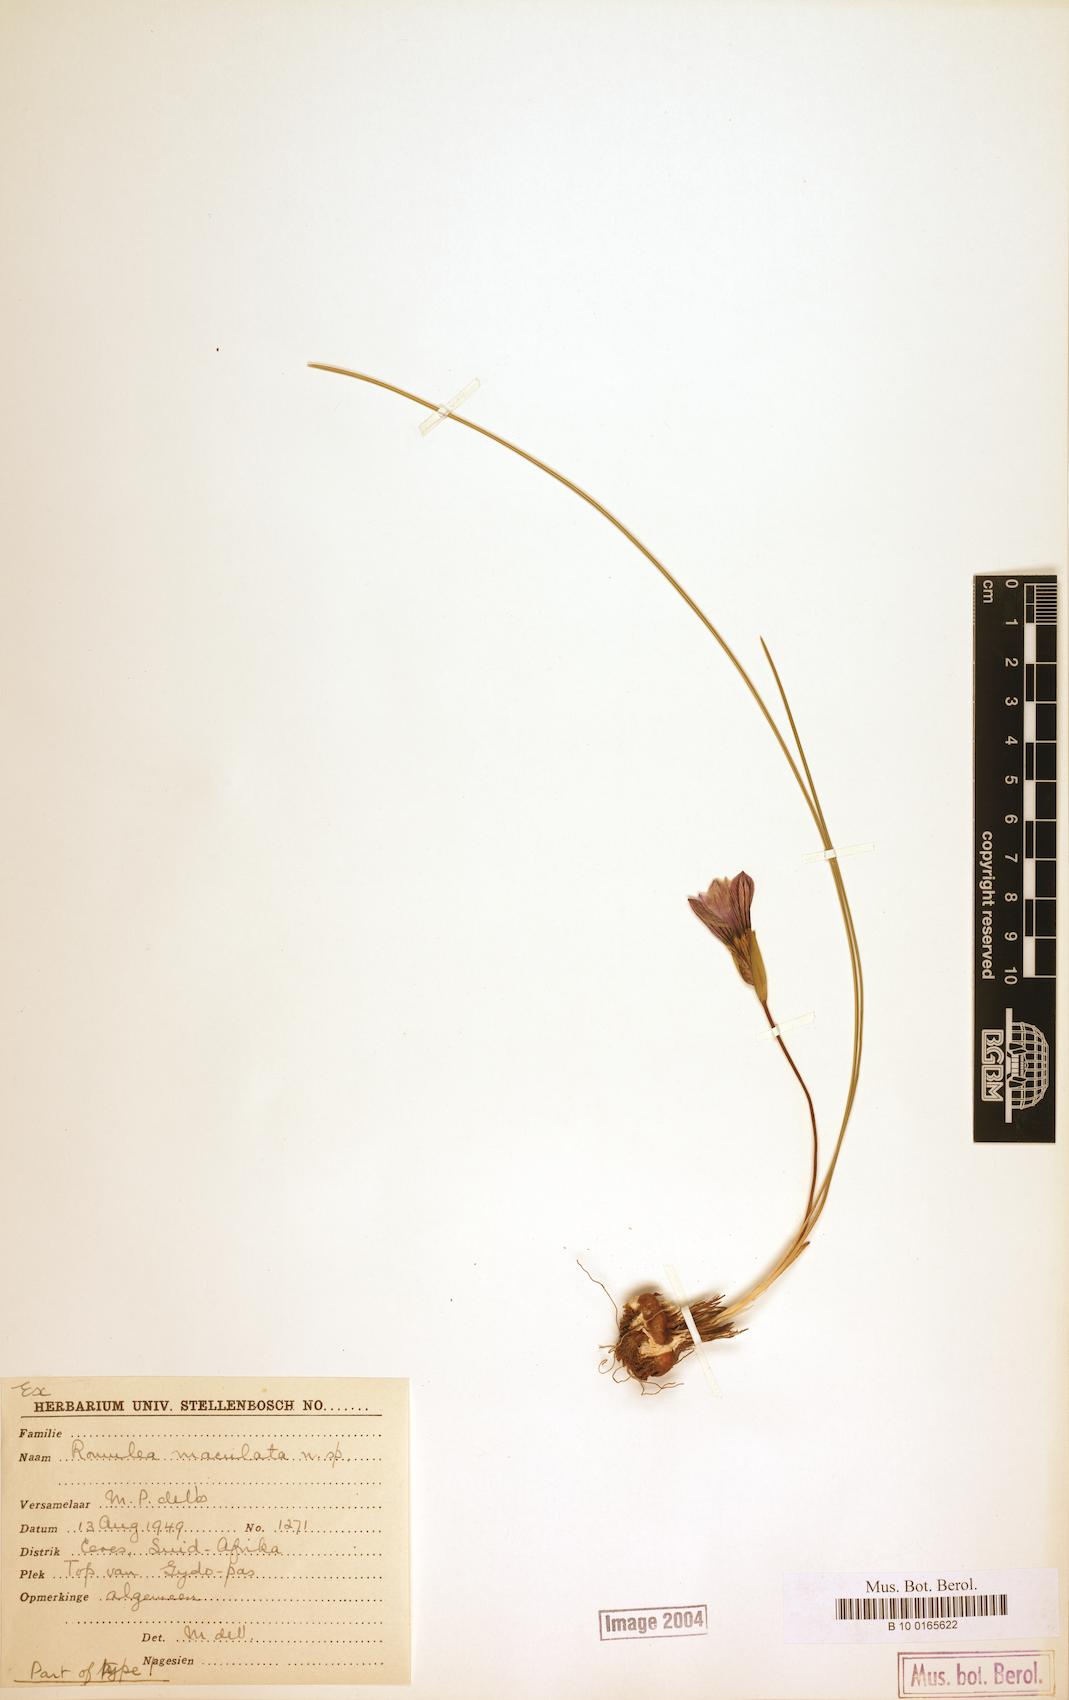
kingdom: Plantae
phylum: Tracheophyta
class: Liliopsida
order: Asparagales
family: Iridaceae
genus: Romulea
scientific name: Romulea maculata
